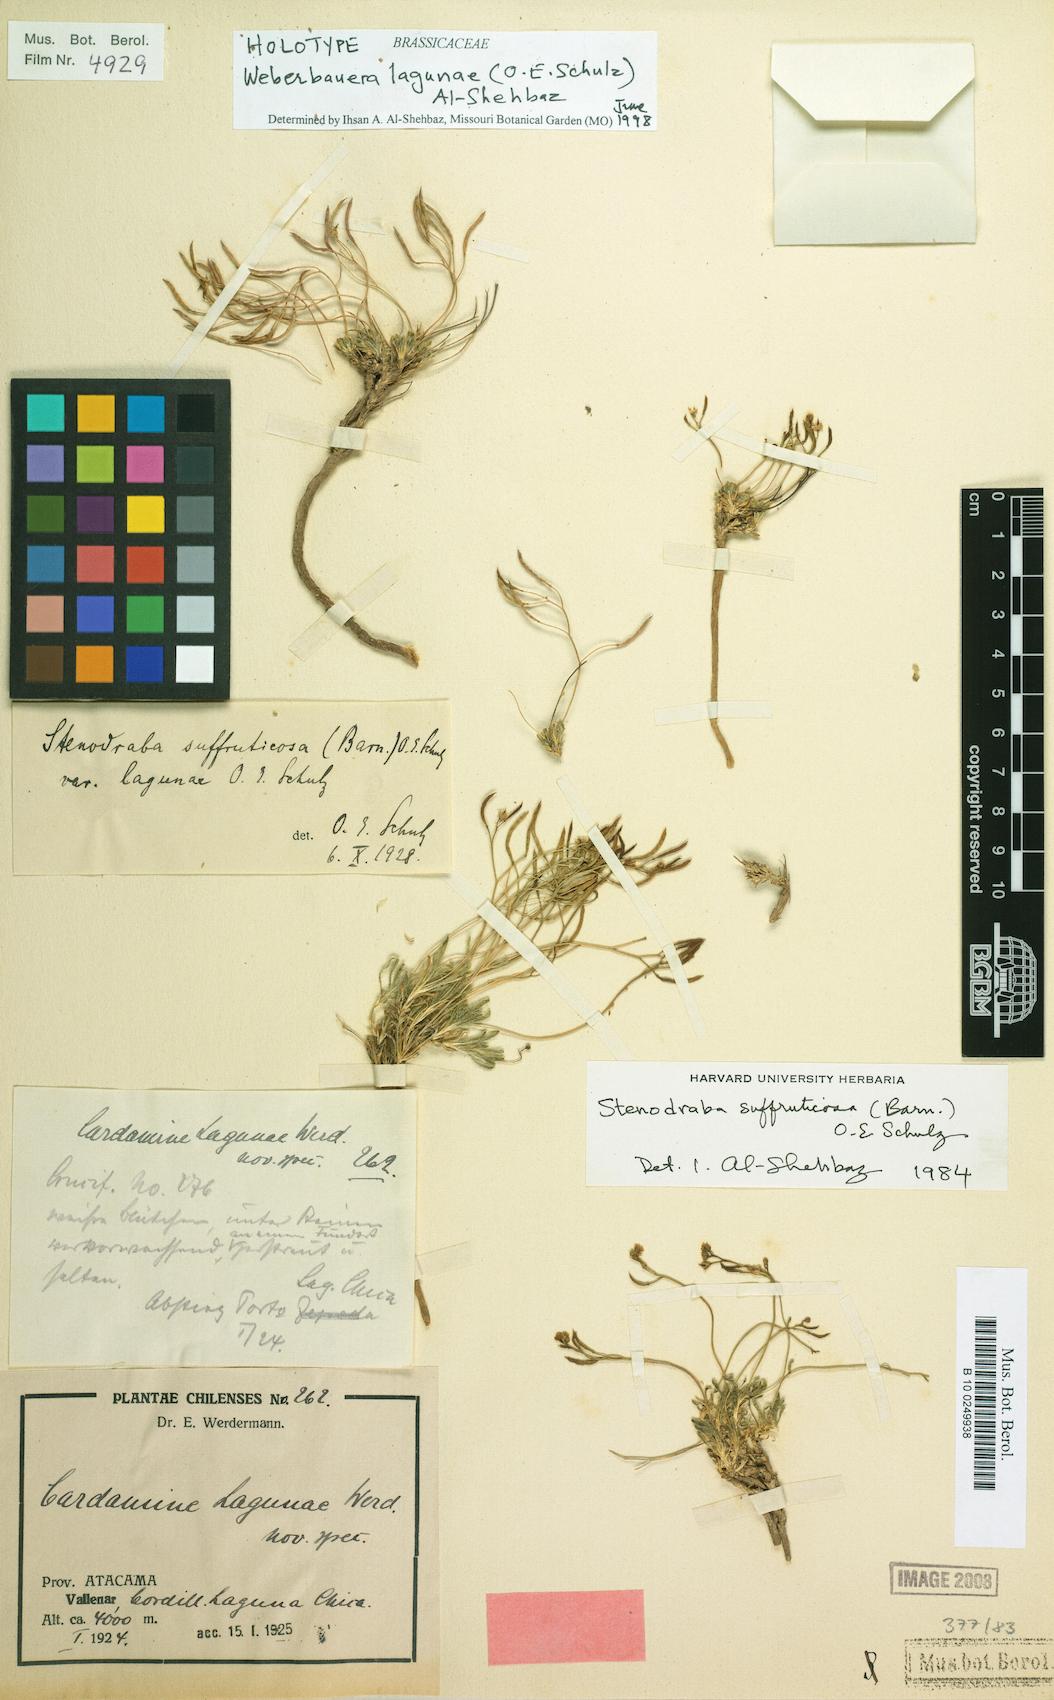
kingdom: Plantae
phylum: Tracheophyta
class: Magnoliopsida
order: Brassicales
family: Brassicaceae
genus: Stenodraba
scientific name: Stenodraba lagunae
